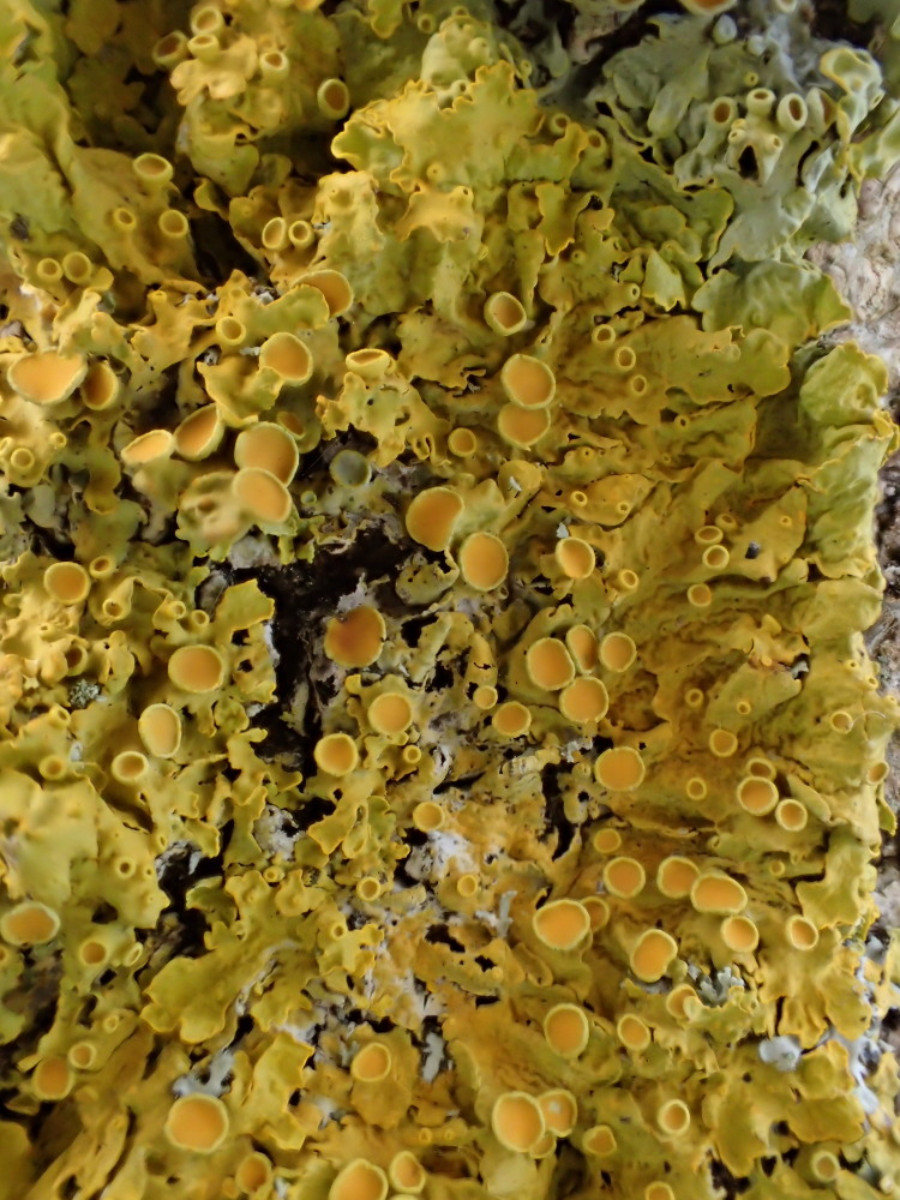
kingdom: Fungi
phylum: Ascomycota
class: Lecanoromycetes
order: Teloschistales
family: Teloschistaceae
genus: Xanthoria
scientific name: Xanthoria parietina
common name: almindelig væggelav
